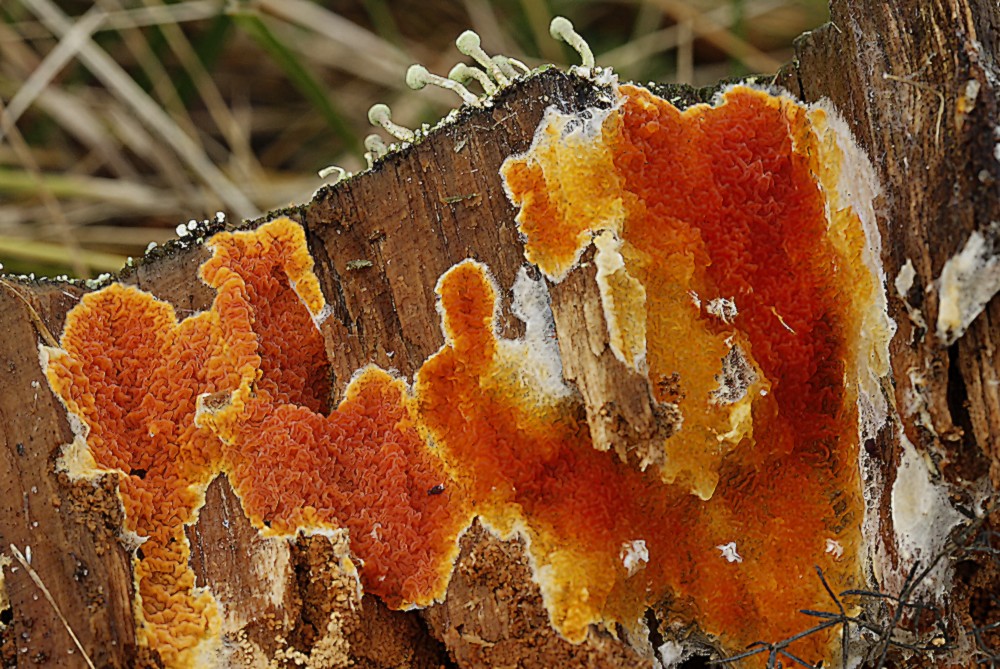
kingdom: Fungi
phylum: Basidiomycota
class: Agaricomycetes
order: Boletales
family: Hygrophoropsidaceae
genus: Leucogyrophana
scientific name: Leucogyrophana mollusca
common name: blød hussvamp
